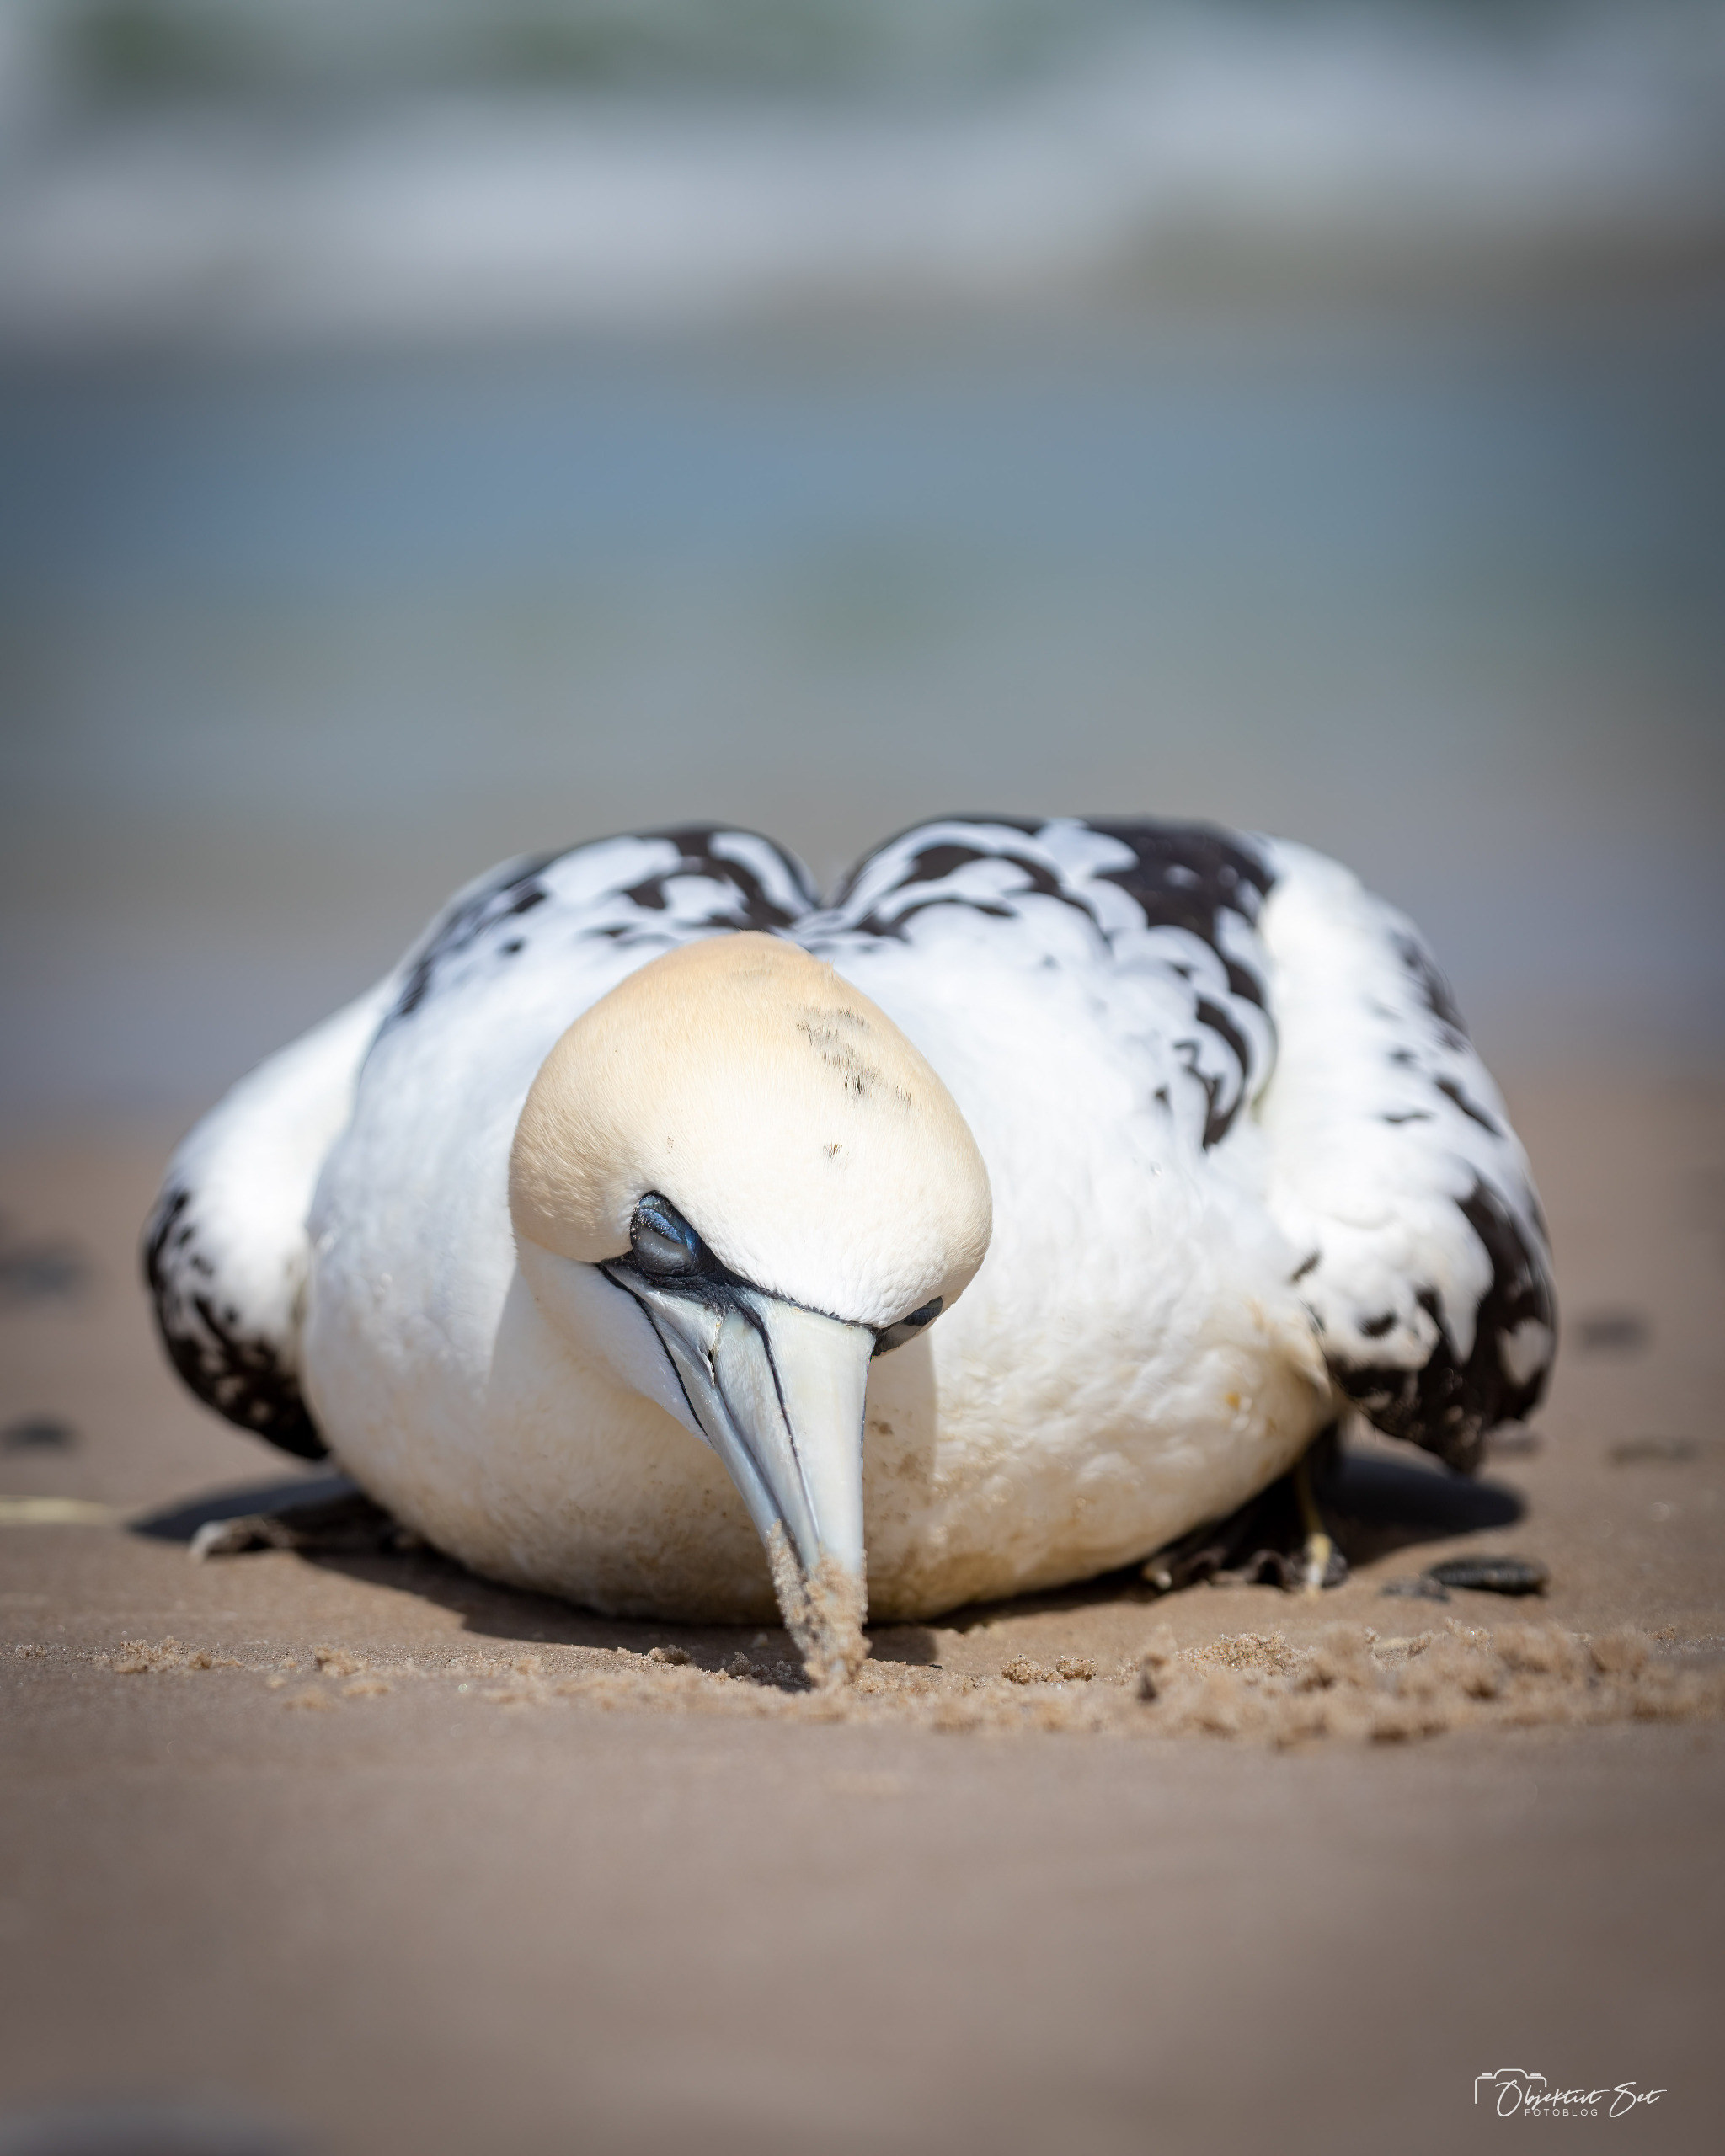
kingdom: Animalia
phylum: Chordata
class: Aves
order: Suliformes
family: Sulidae
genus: Morus
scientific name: Morus bassanus
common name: Sule
